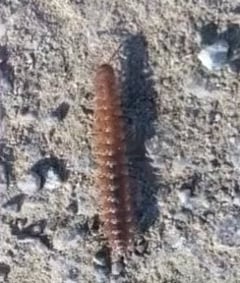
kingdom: Animalia
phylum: Arthropoda
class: Diplopoda
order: Polydesmida
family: Polydesmidae
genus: Polydesmus
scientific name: Polydesmus angustus
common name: Flat millipede
